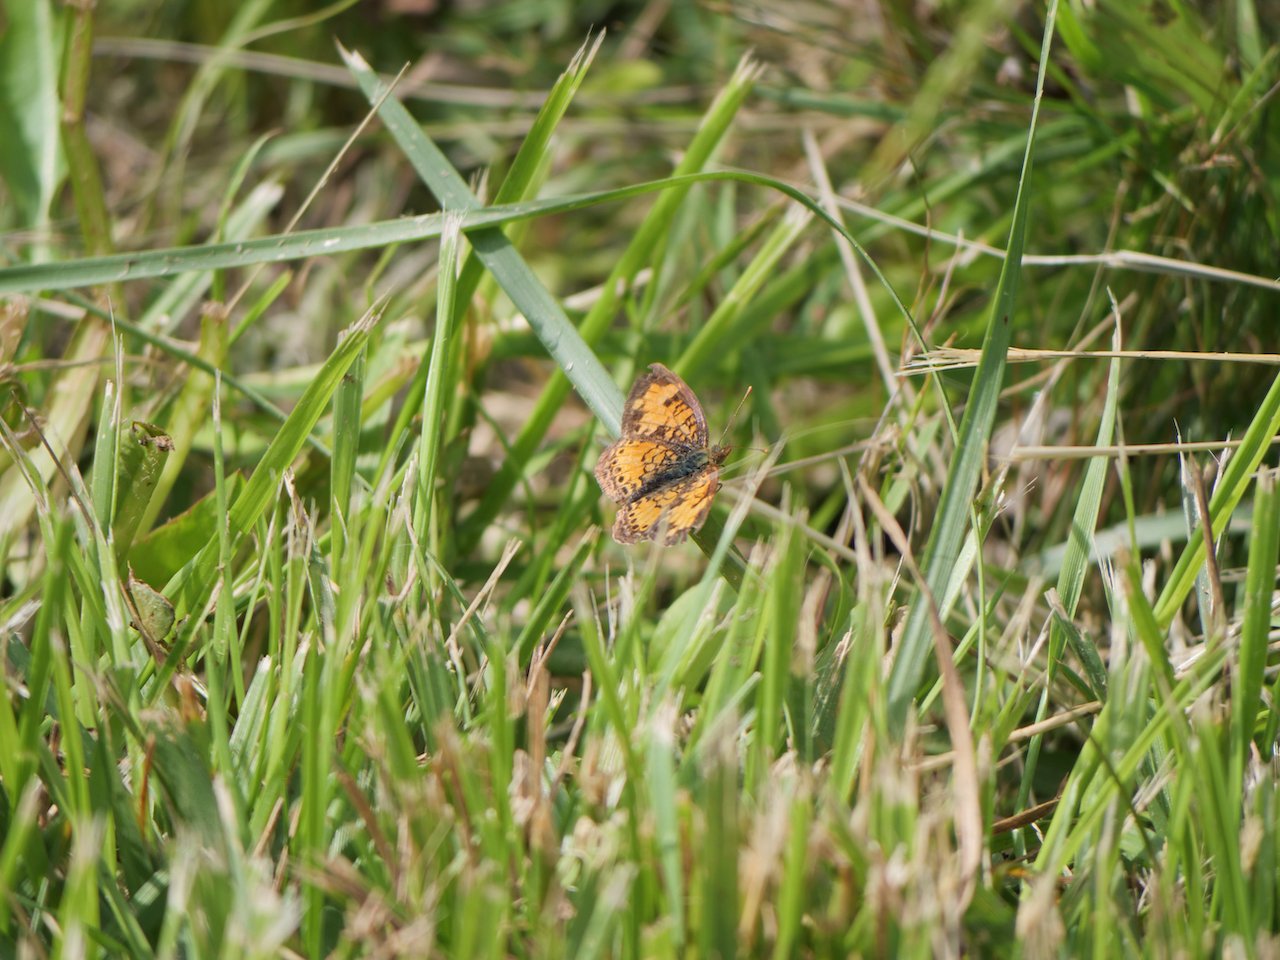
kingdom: Animalia
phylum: Arthropoda
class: Insecta
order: Lepidoptera
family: Nymphalidae
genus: Phyciodes
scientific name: Phyciodes tharos
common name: Northern Crescent
